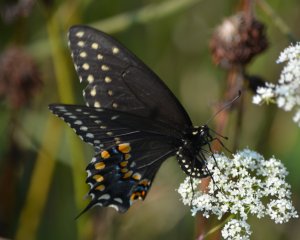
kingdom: Animalia
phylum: Arthropoda
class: Insecta
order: Lepidoptera
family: Papilionidae
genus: Papilio
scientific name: Papilio polyxenes
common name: Black Swallowtail
